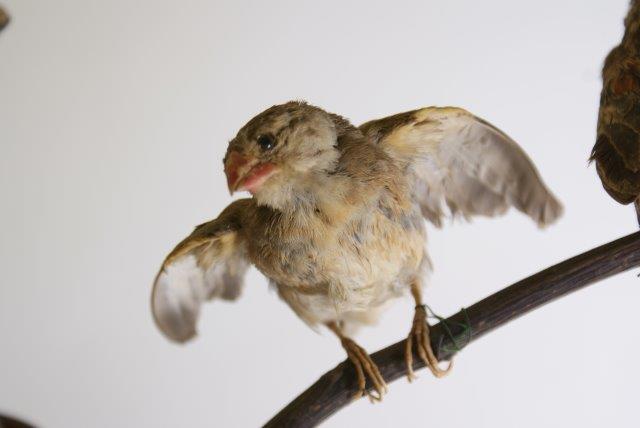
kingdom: Animalia
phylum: Chordata
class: Aves
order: Passeriformes
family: Ploceidae
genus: Quelea
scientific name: Quelea quelea
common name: Roodbekwever
